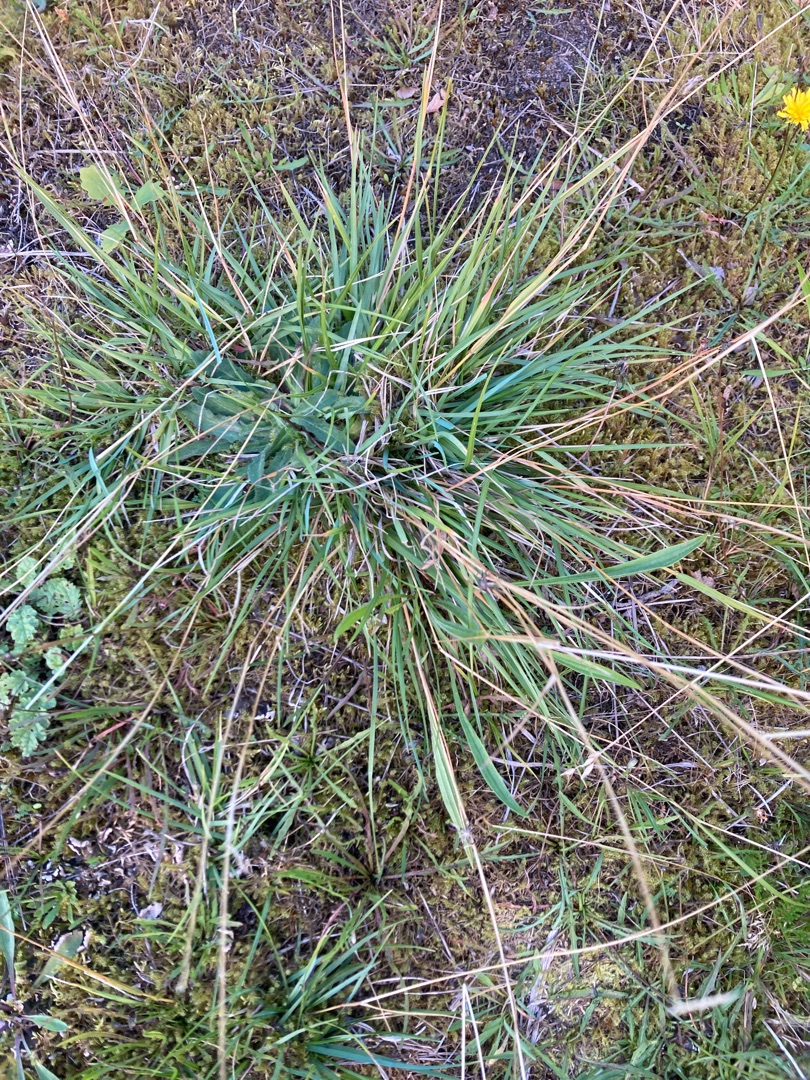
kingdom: Plantae
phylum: Tracheophyta
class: Liliopsida
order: Poales
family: Poaceae
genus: Danthonia
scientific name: Danthonia decumbens
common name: Tandbælg
